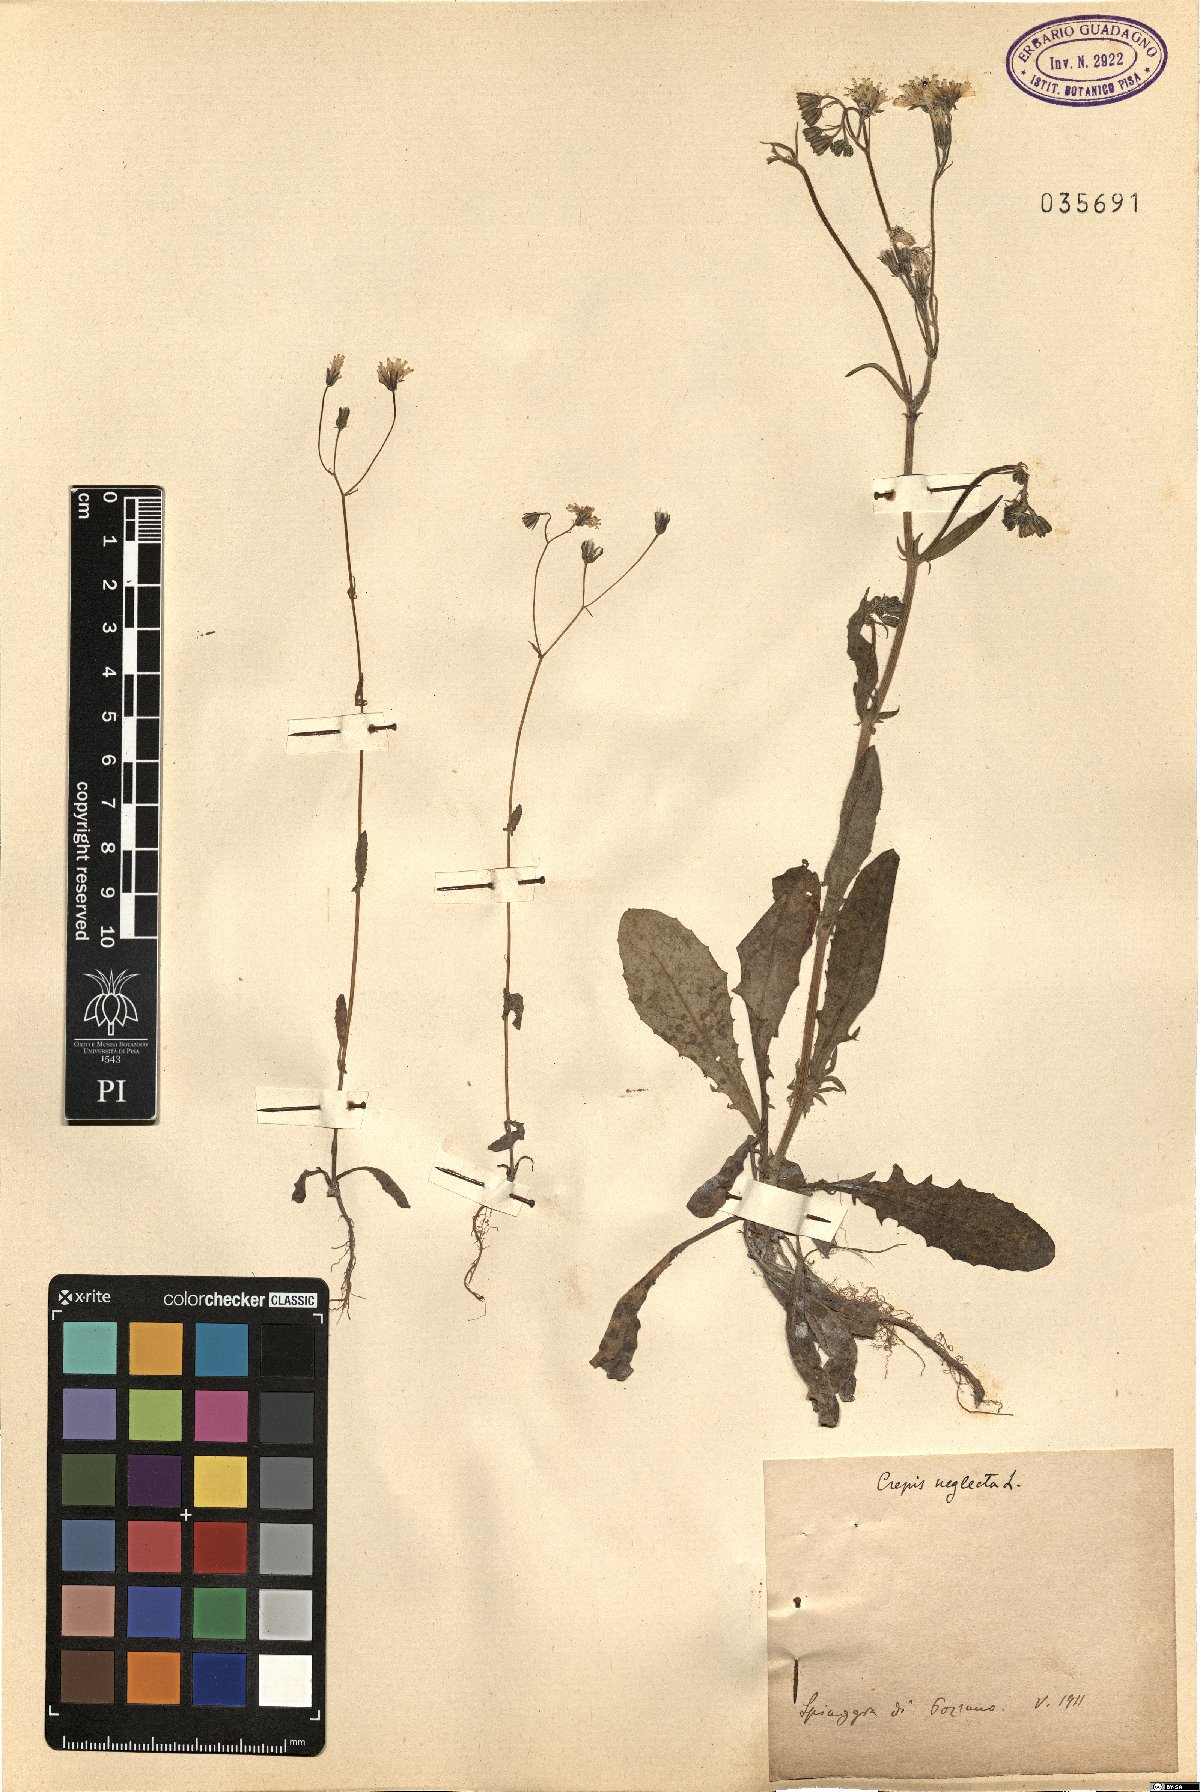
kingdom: Plantae
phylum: Tracheophyta
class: Magnoliopsida
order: Asterales
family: Asteraceae
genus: Crepis
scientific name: Crepis neglecta
